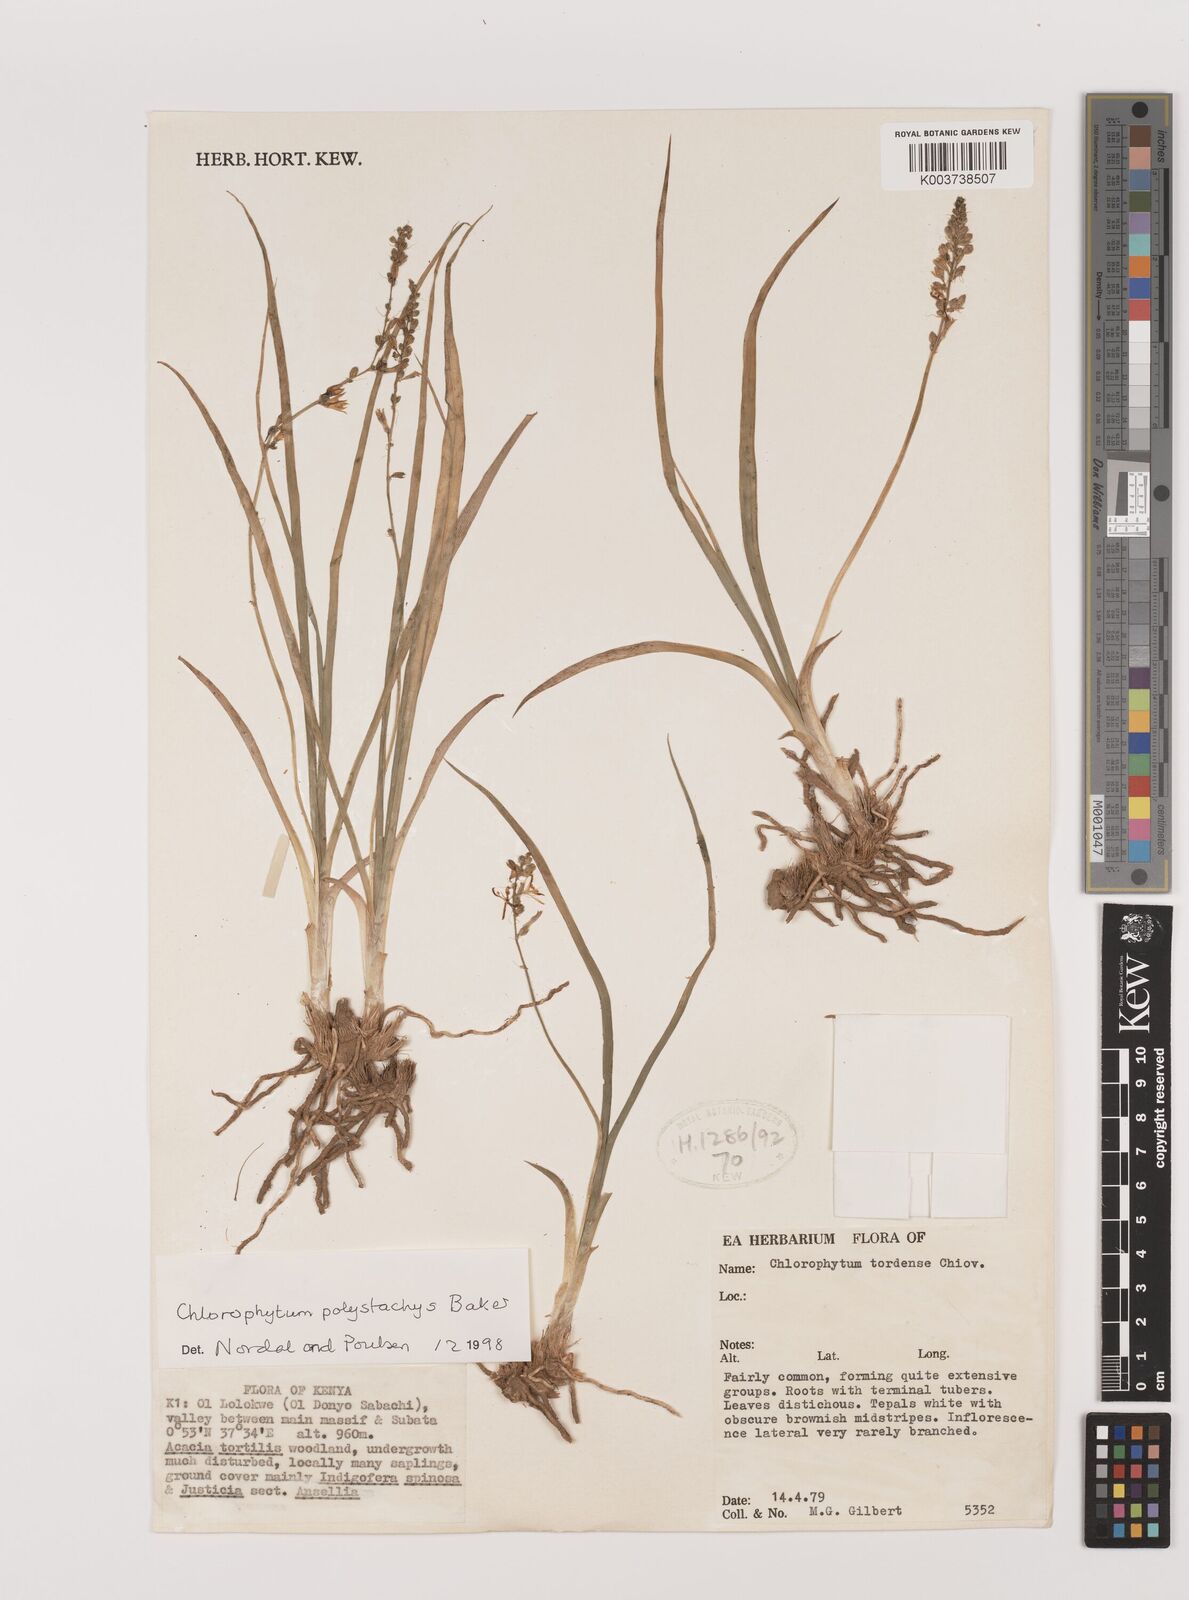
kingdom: Plantae
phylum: Tracheophyta
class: Liliopsida
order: Asparagales
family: Asparagaceae
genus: Chlorophytum
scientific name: Chlorophytum polystachys
